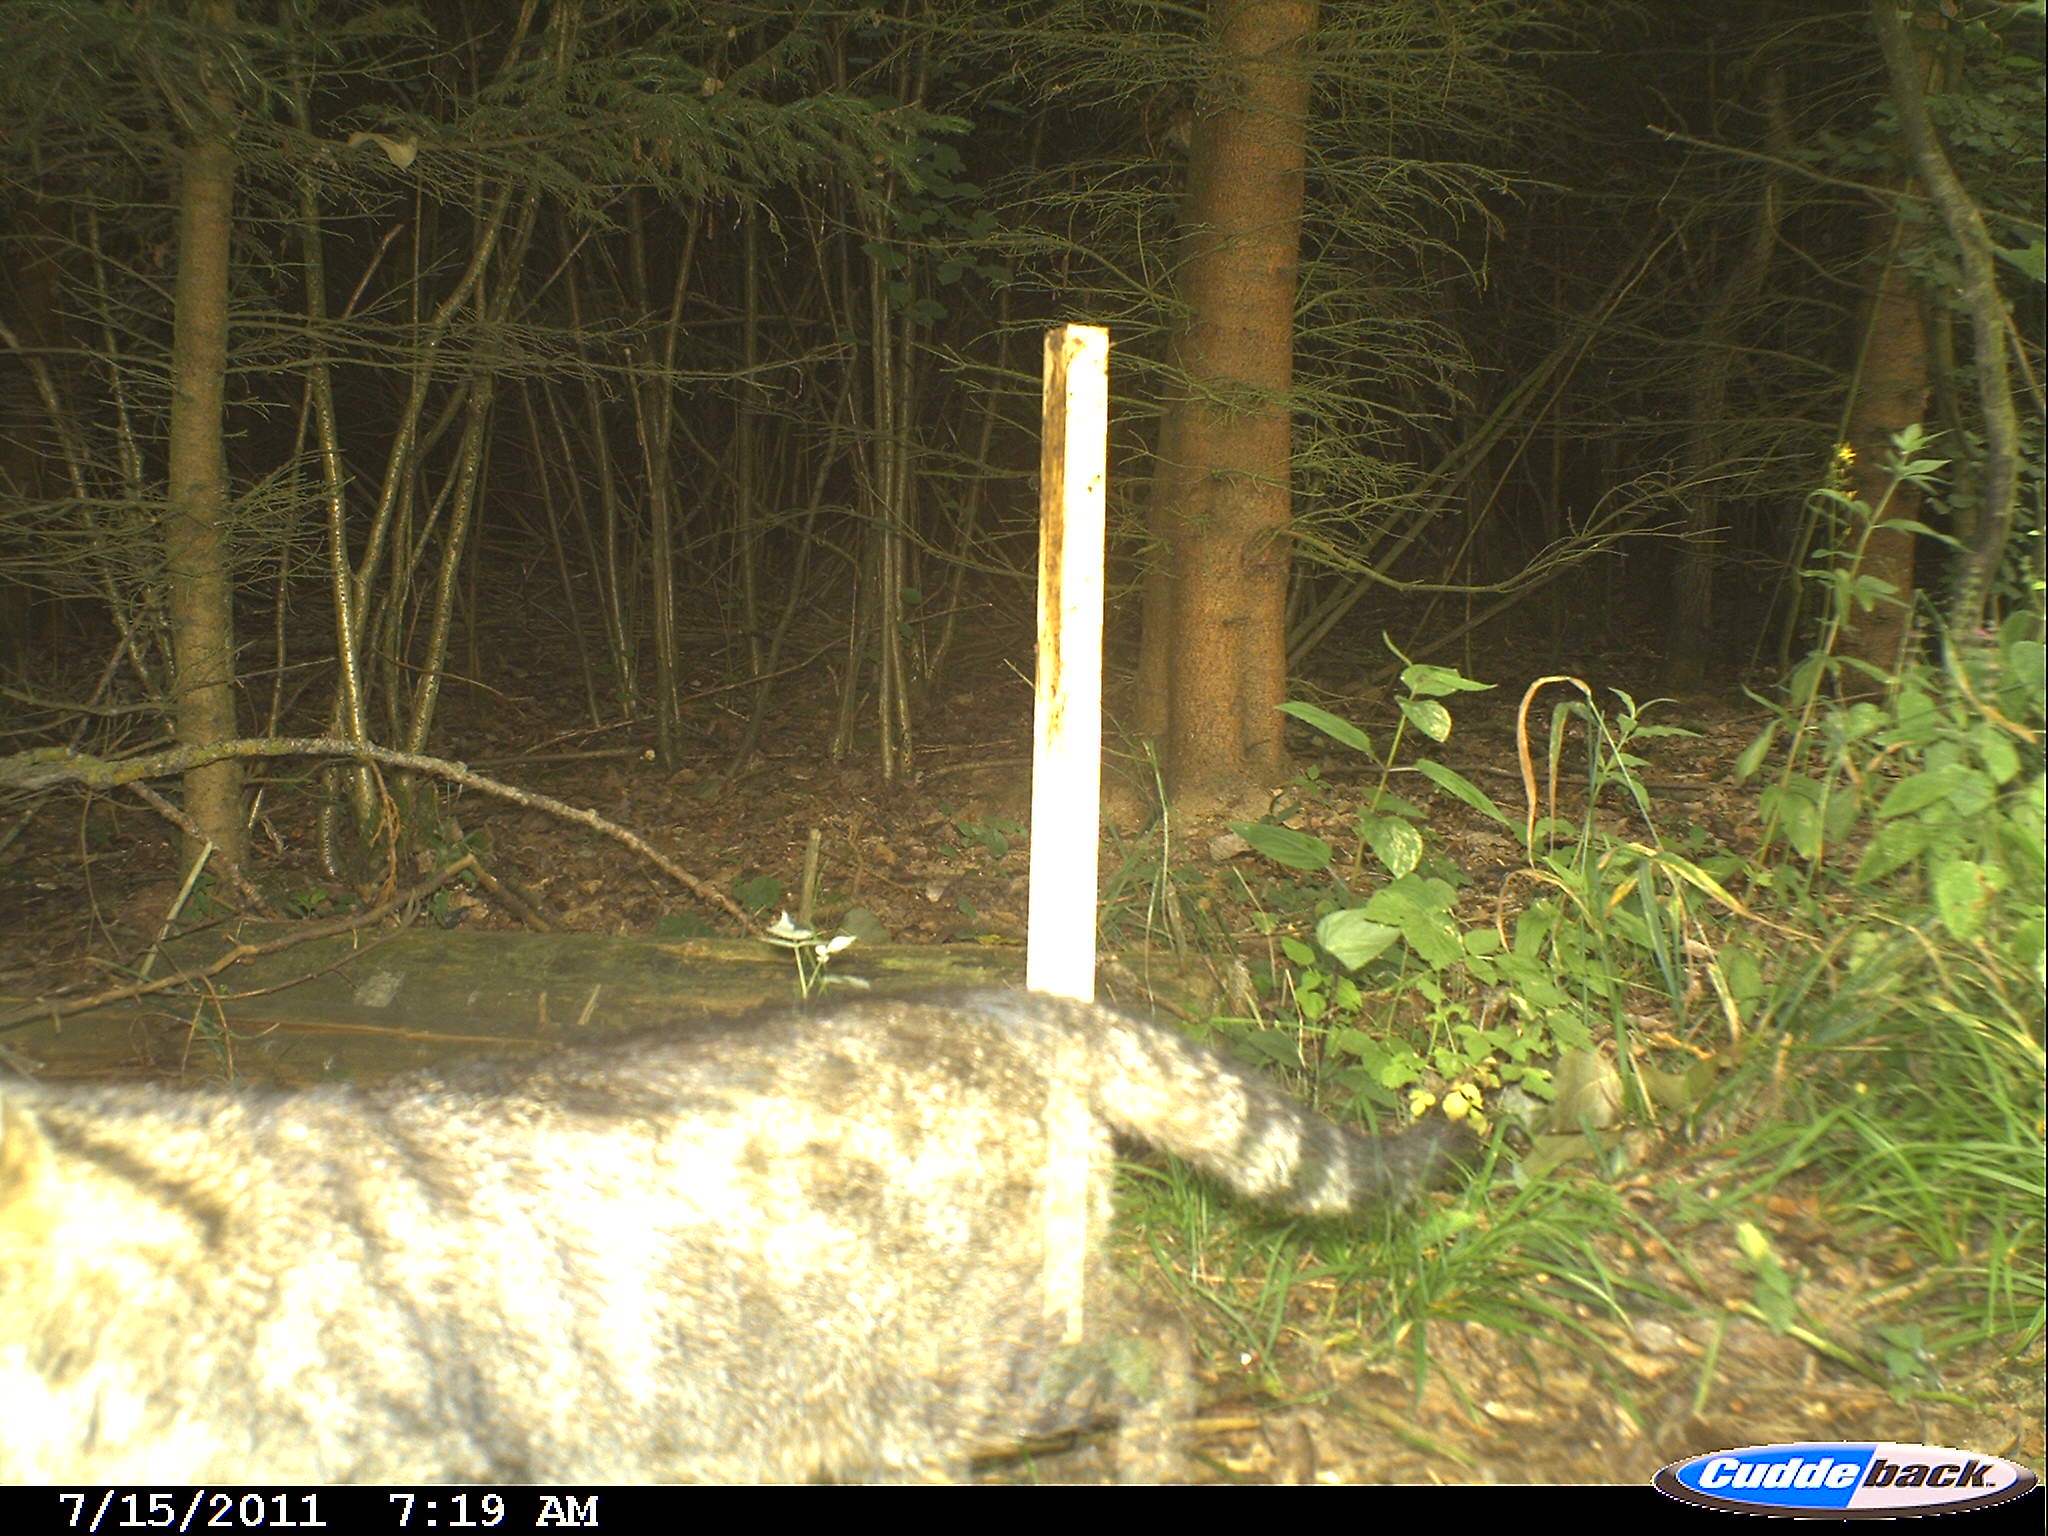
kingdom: Animalia
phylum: Chordata
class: Mammalia
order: Carnivora
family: Felidae
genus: Felis
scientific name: Felis silvestris
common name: Wildcat
